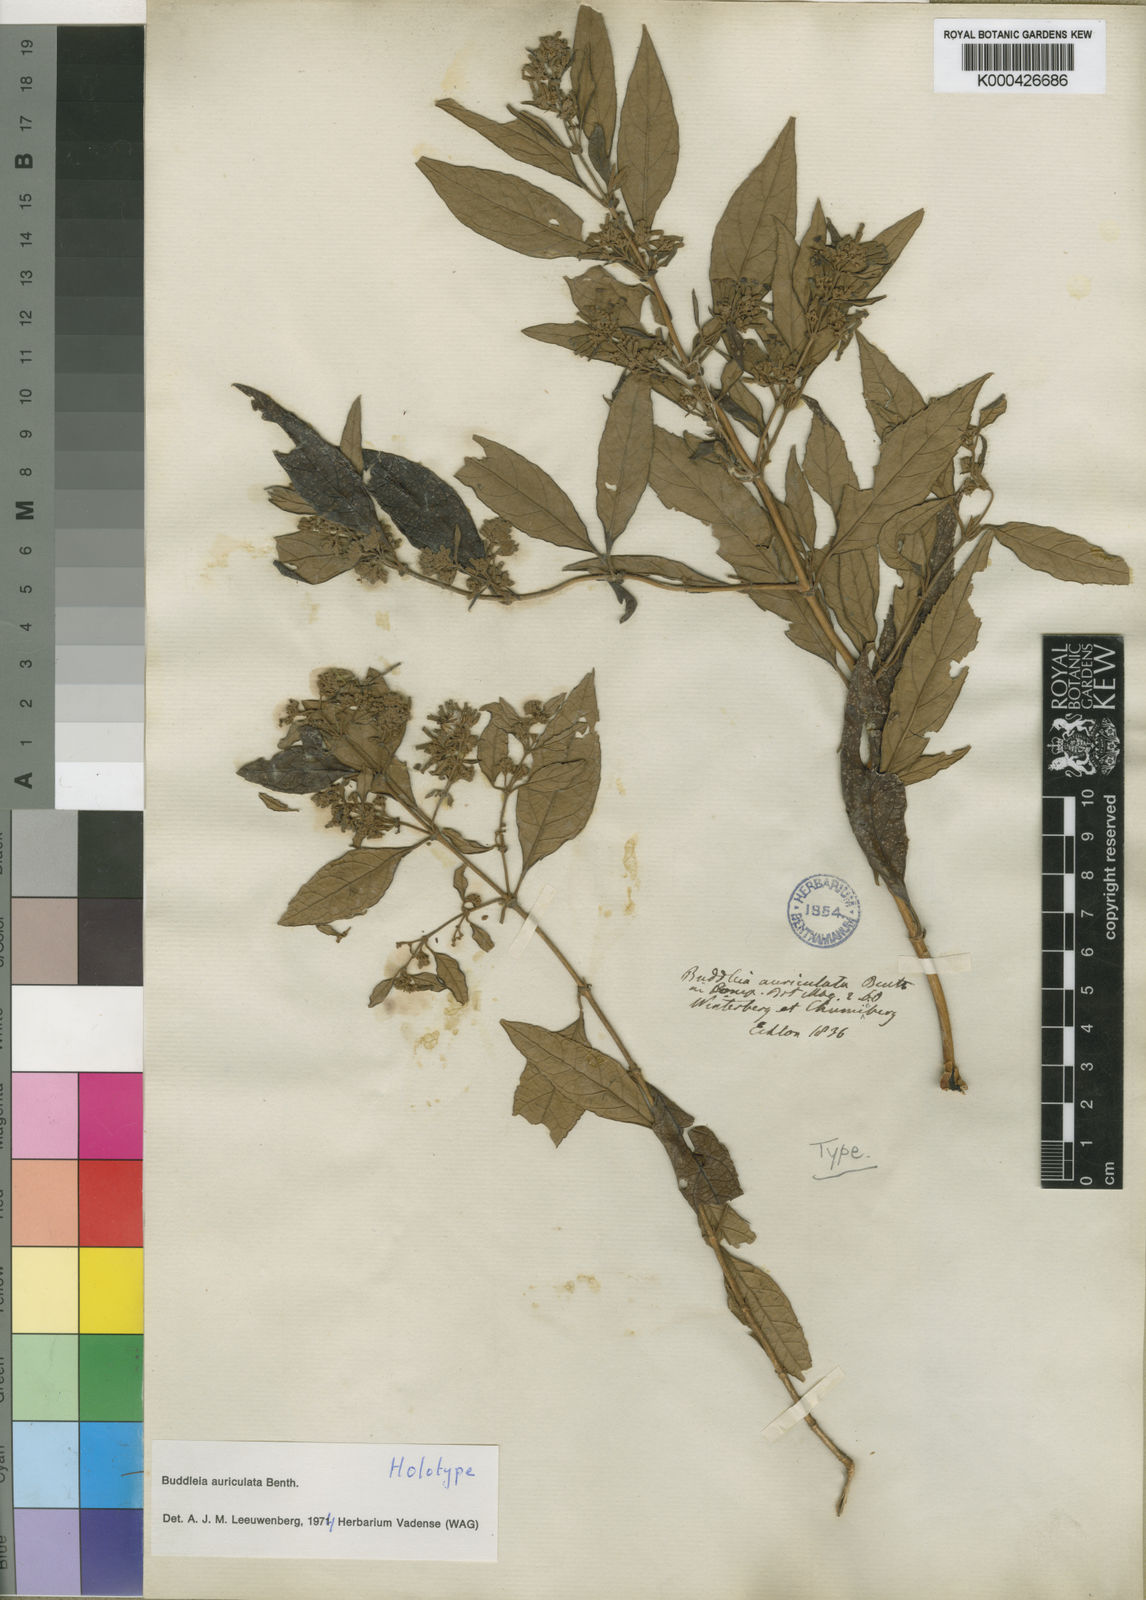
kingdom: Plantae
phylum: Tracheophyta
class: Magnoliopsida
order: Lamiales
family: Scrophulariaceae
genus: Buddleja
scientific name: Buddleja auriculata
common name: Weeping sagewood
